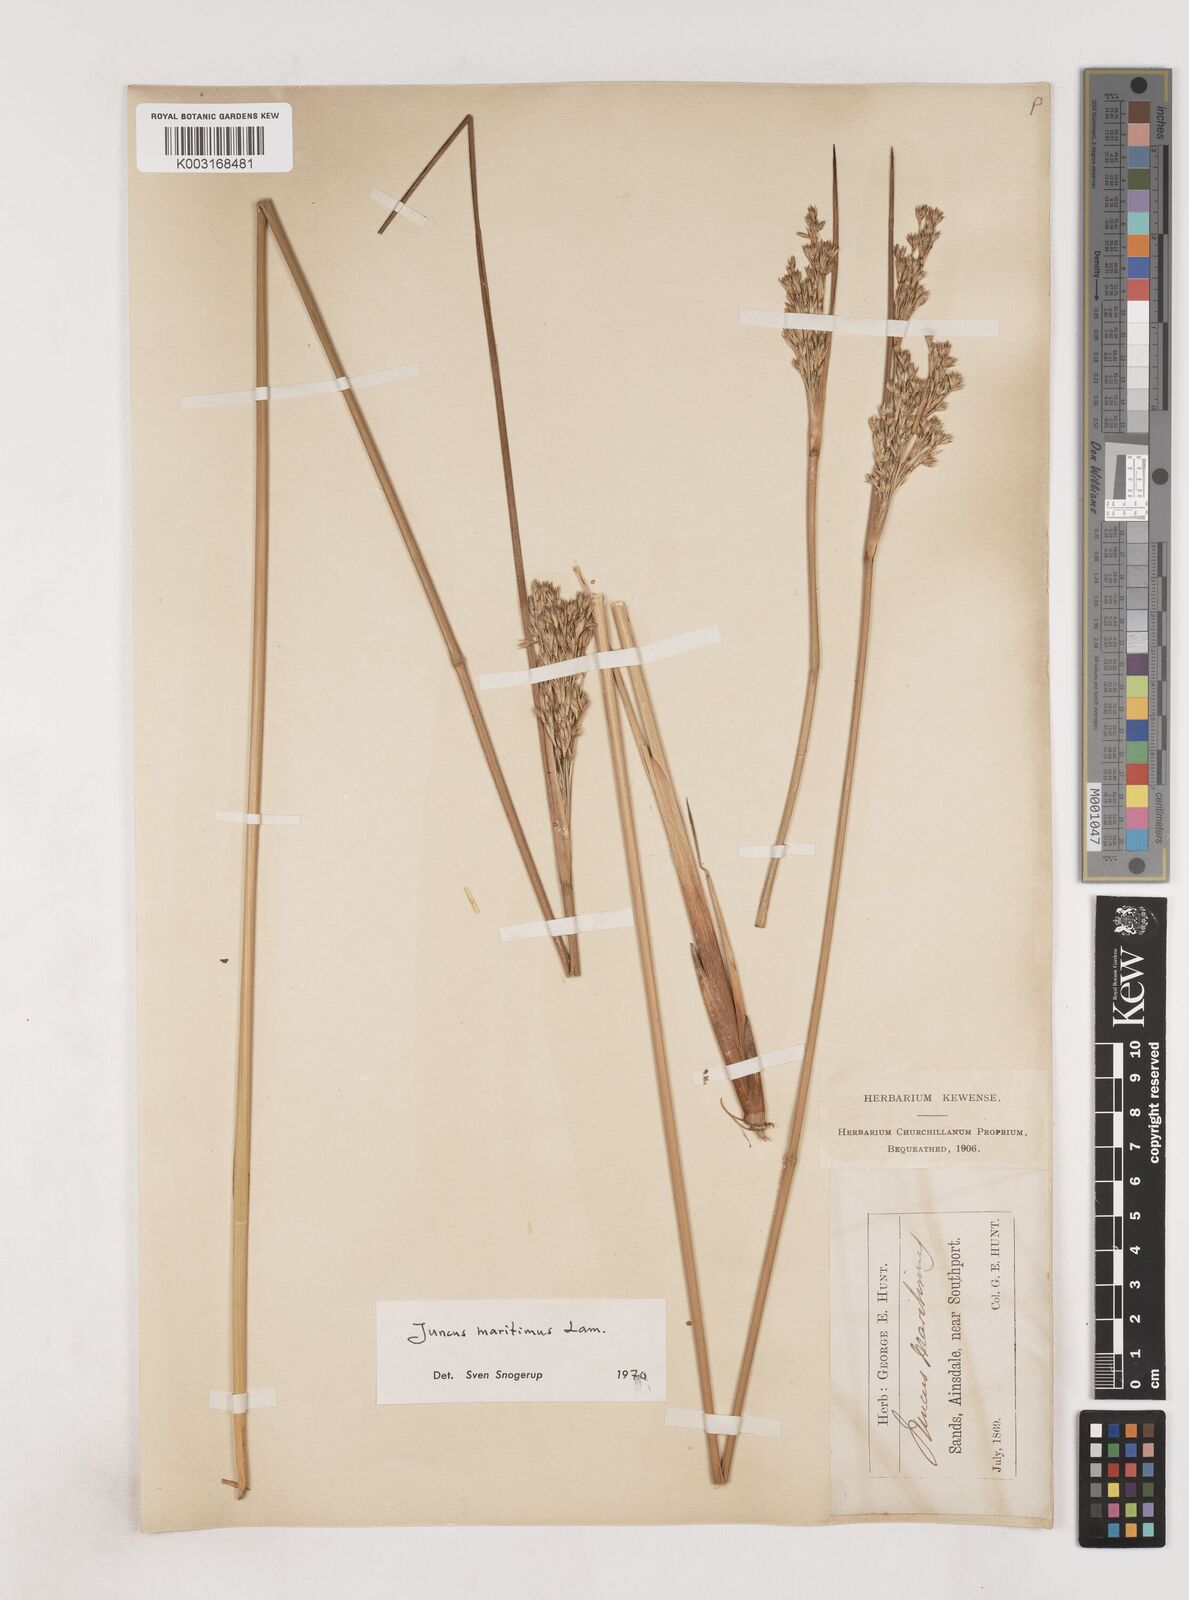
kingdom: Plantae
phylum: Tracheophyta
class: Liliopsida
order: Poales
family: Juncaceae
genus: Juncus
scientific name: Juncus maritimus
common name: Sea rush
